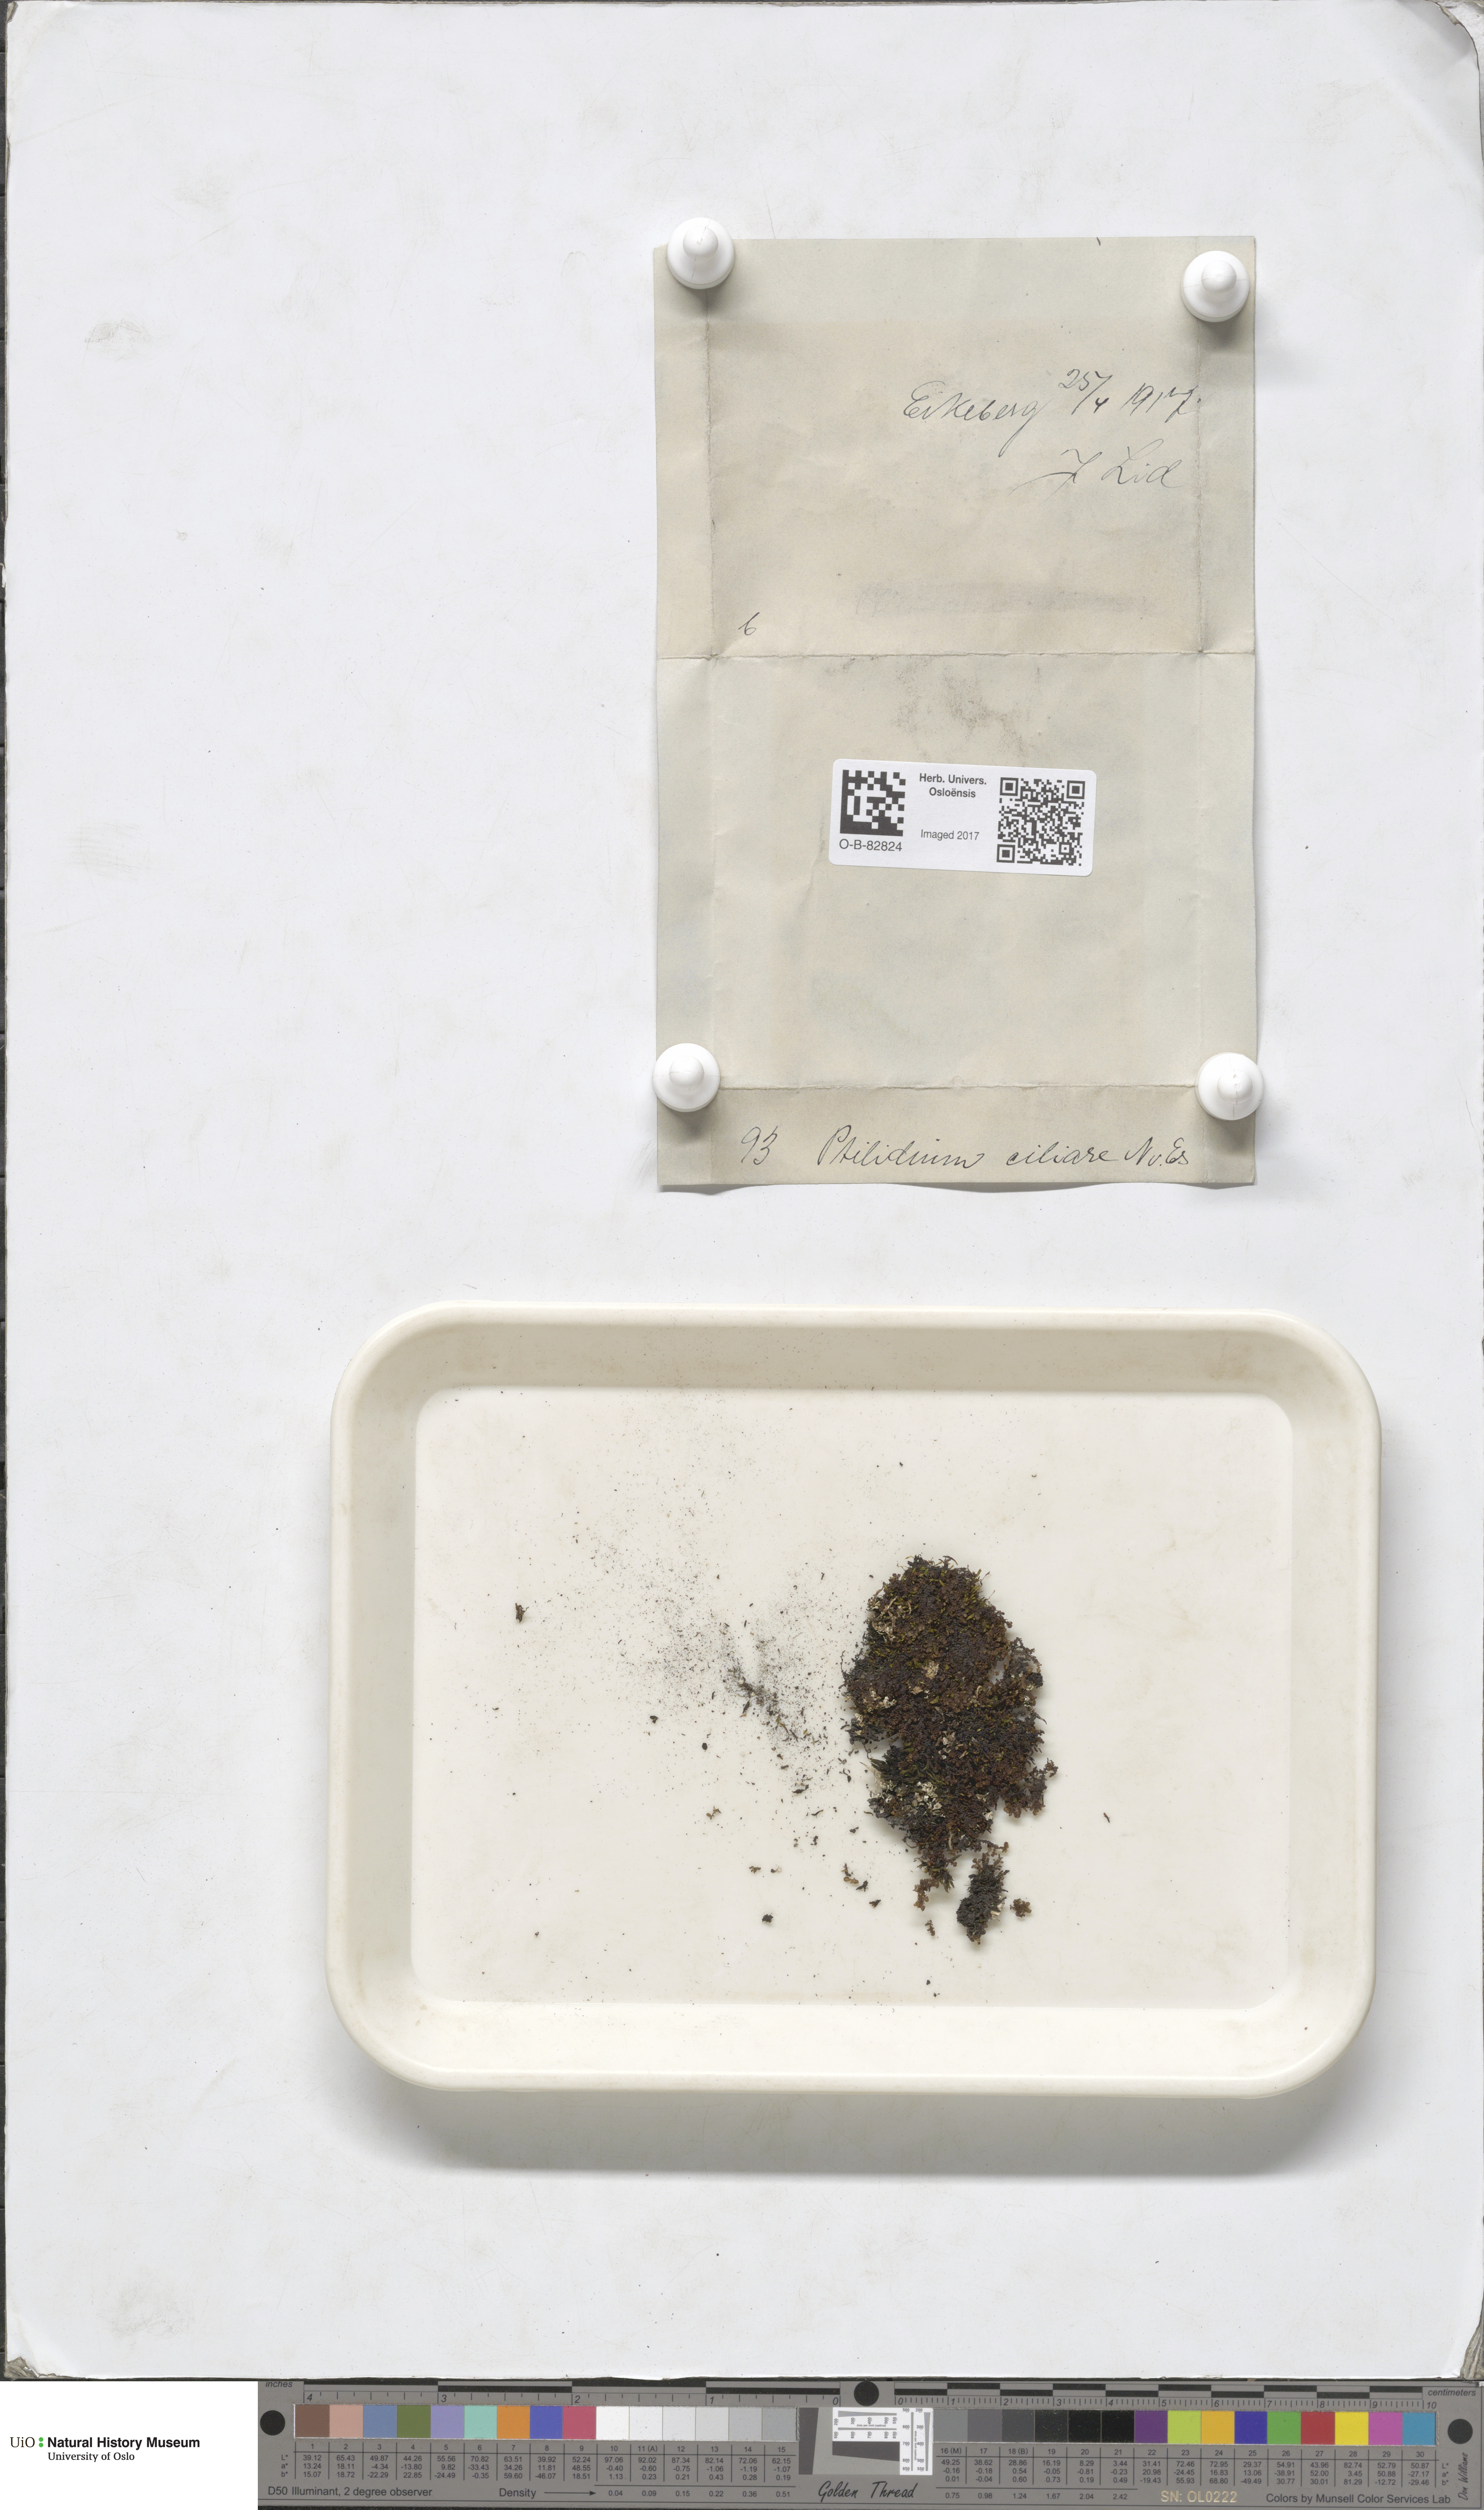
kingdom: Plantae
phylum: Marchantiophyta
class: Jungermanniopsida
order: Ptilidiales
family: Ptilidiaceae
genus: Ptilidium
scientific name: Ptilidium ciliare
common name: Ciliate fringewort
